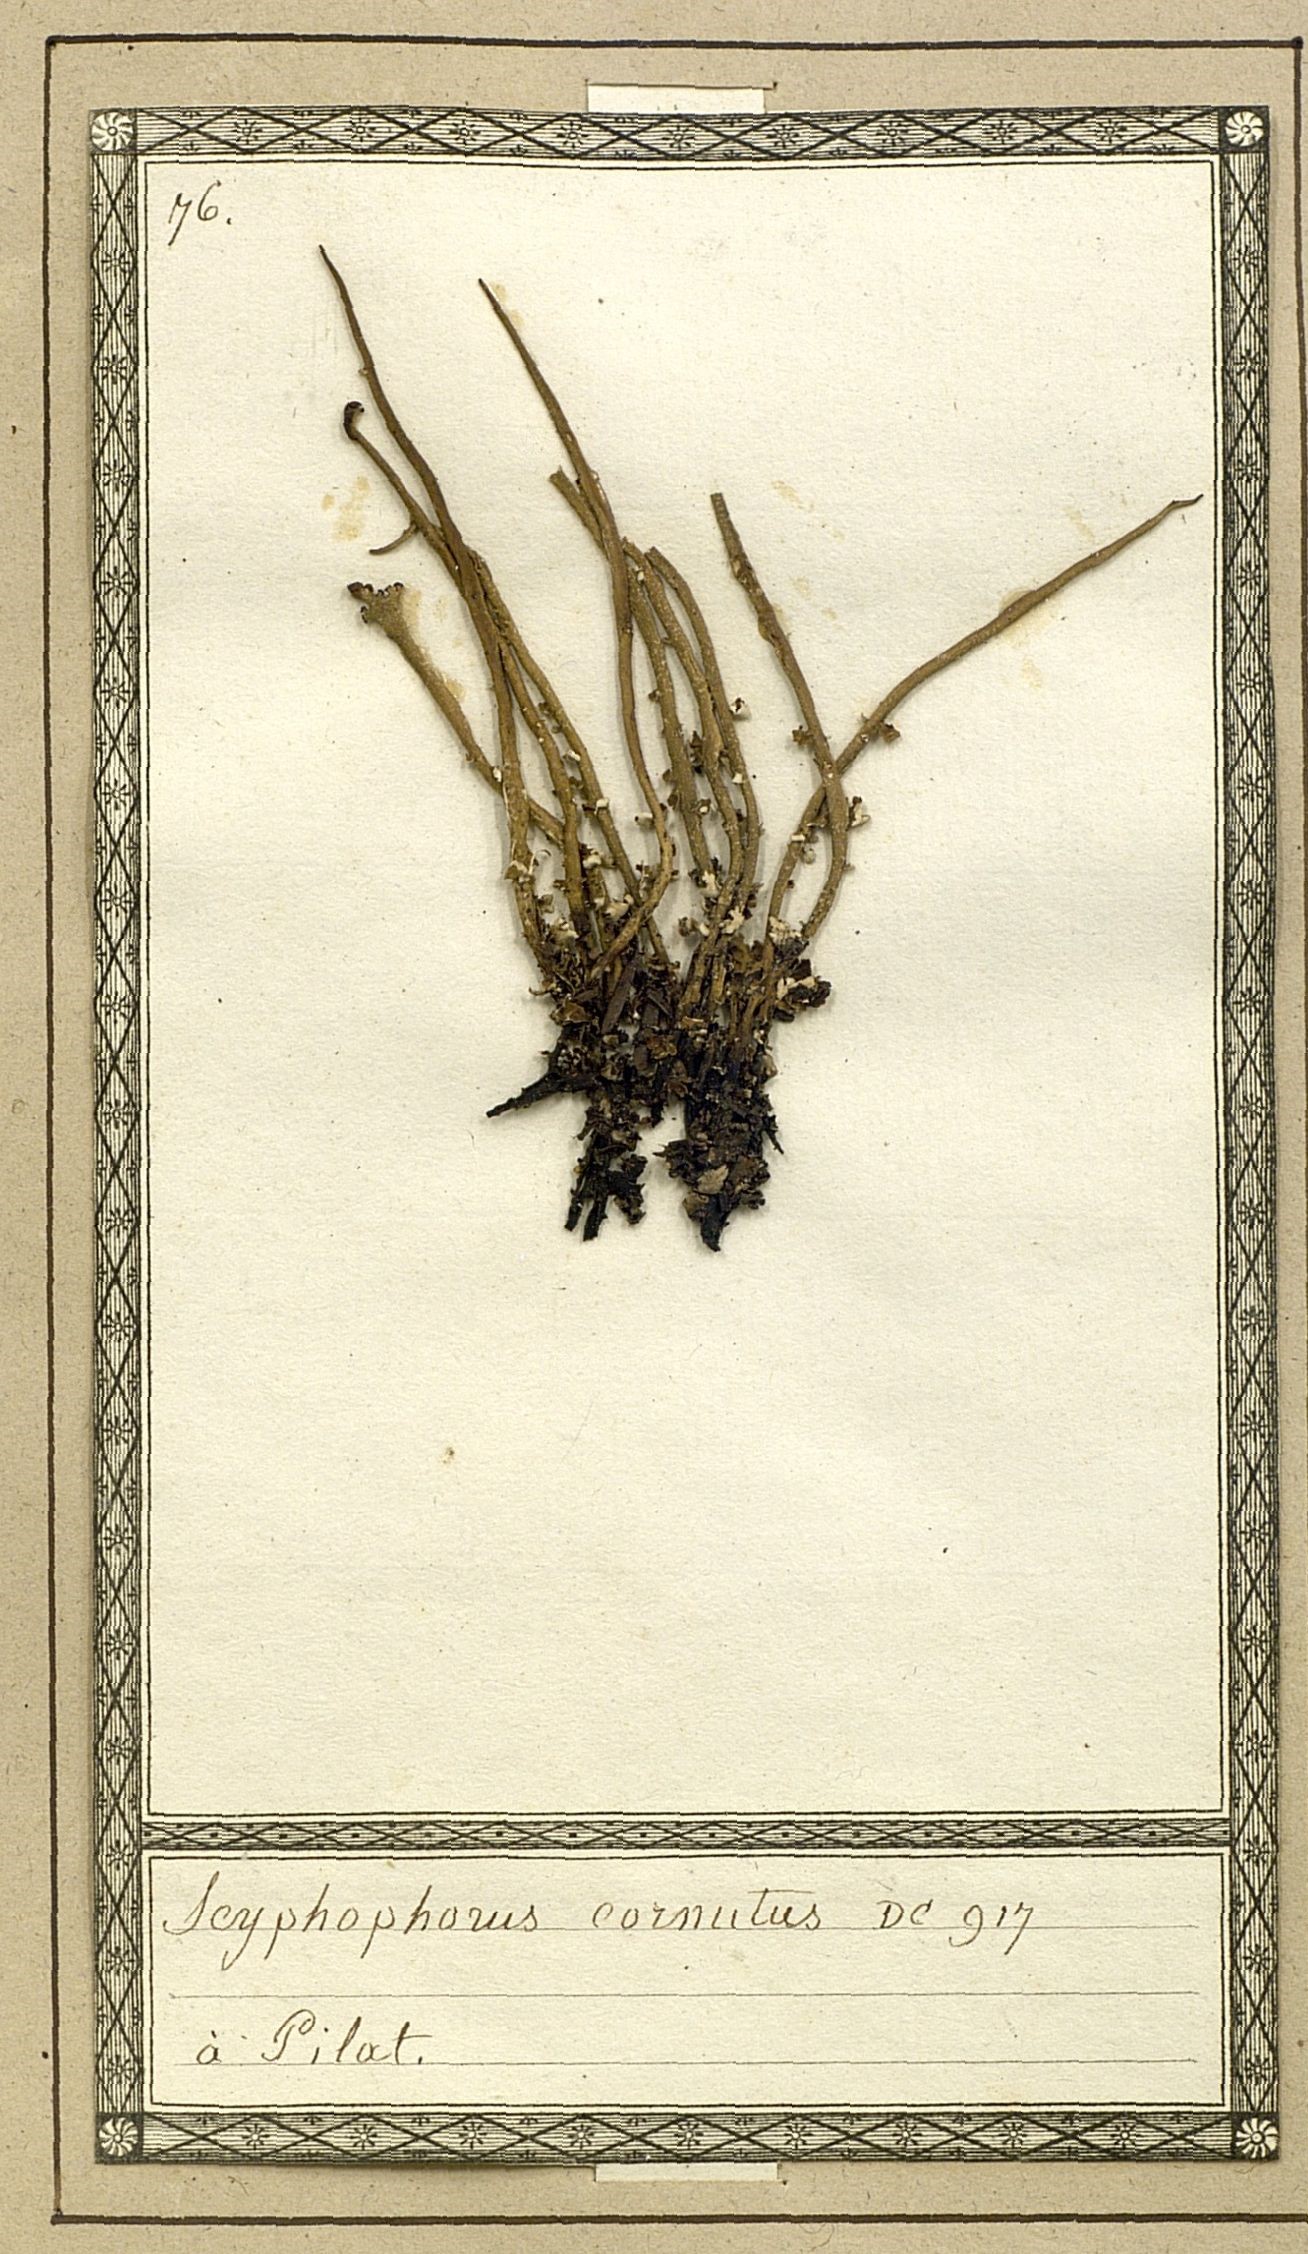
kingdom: Fungi
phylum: Ascomycota
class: Lecanoromycetes
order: Lecanorales
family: Cladoniaceae
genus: Cladonia
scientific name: Cladonia cornuta
